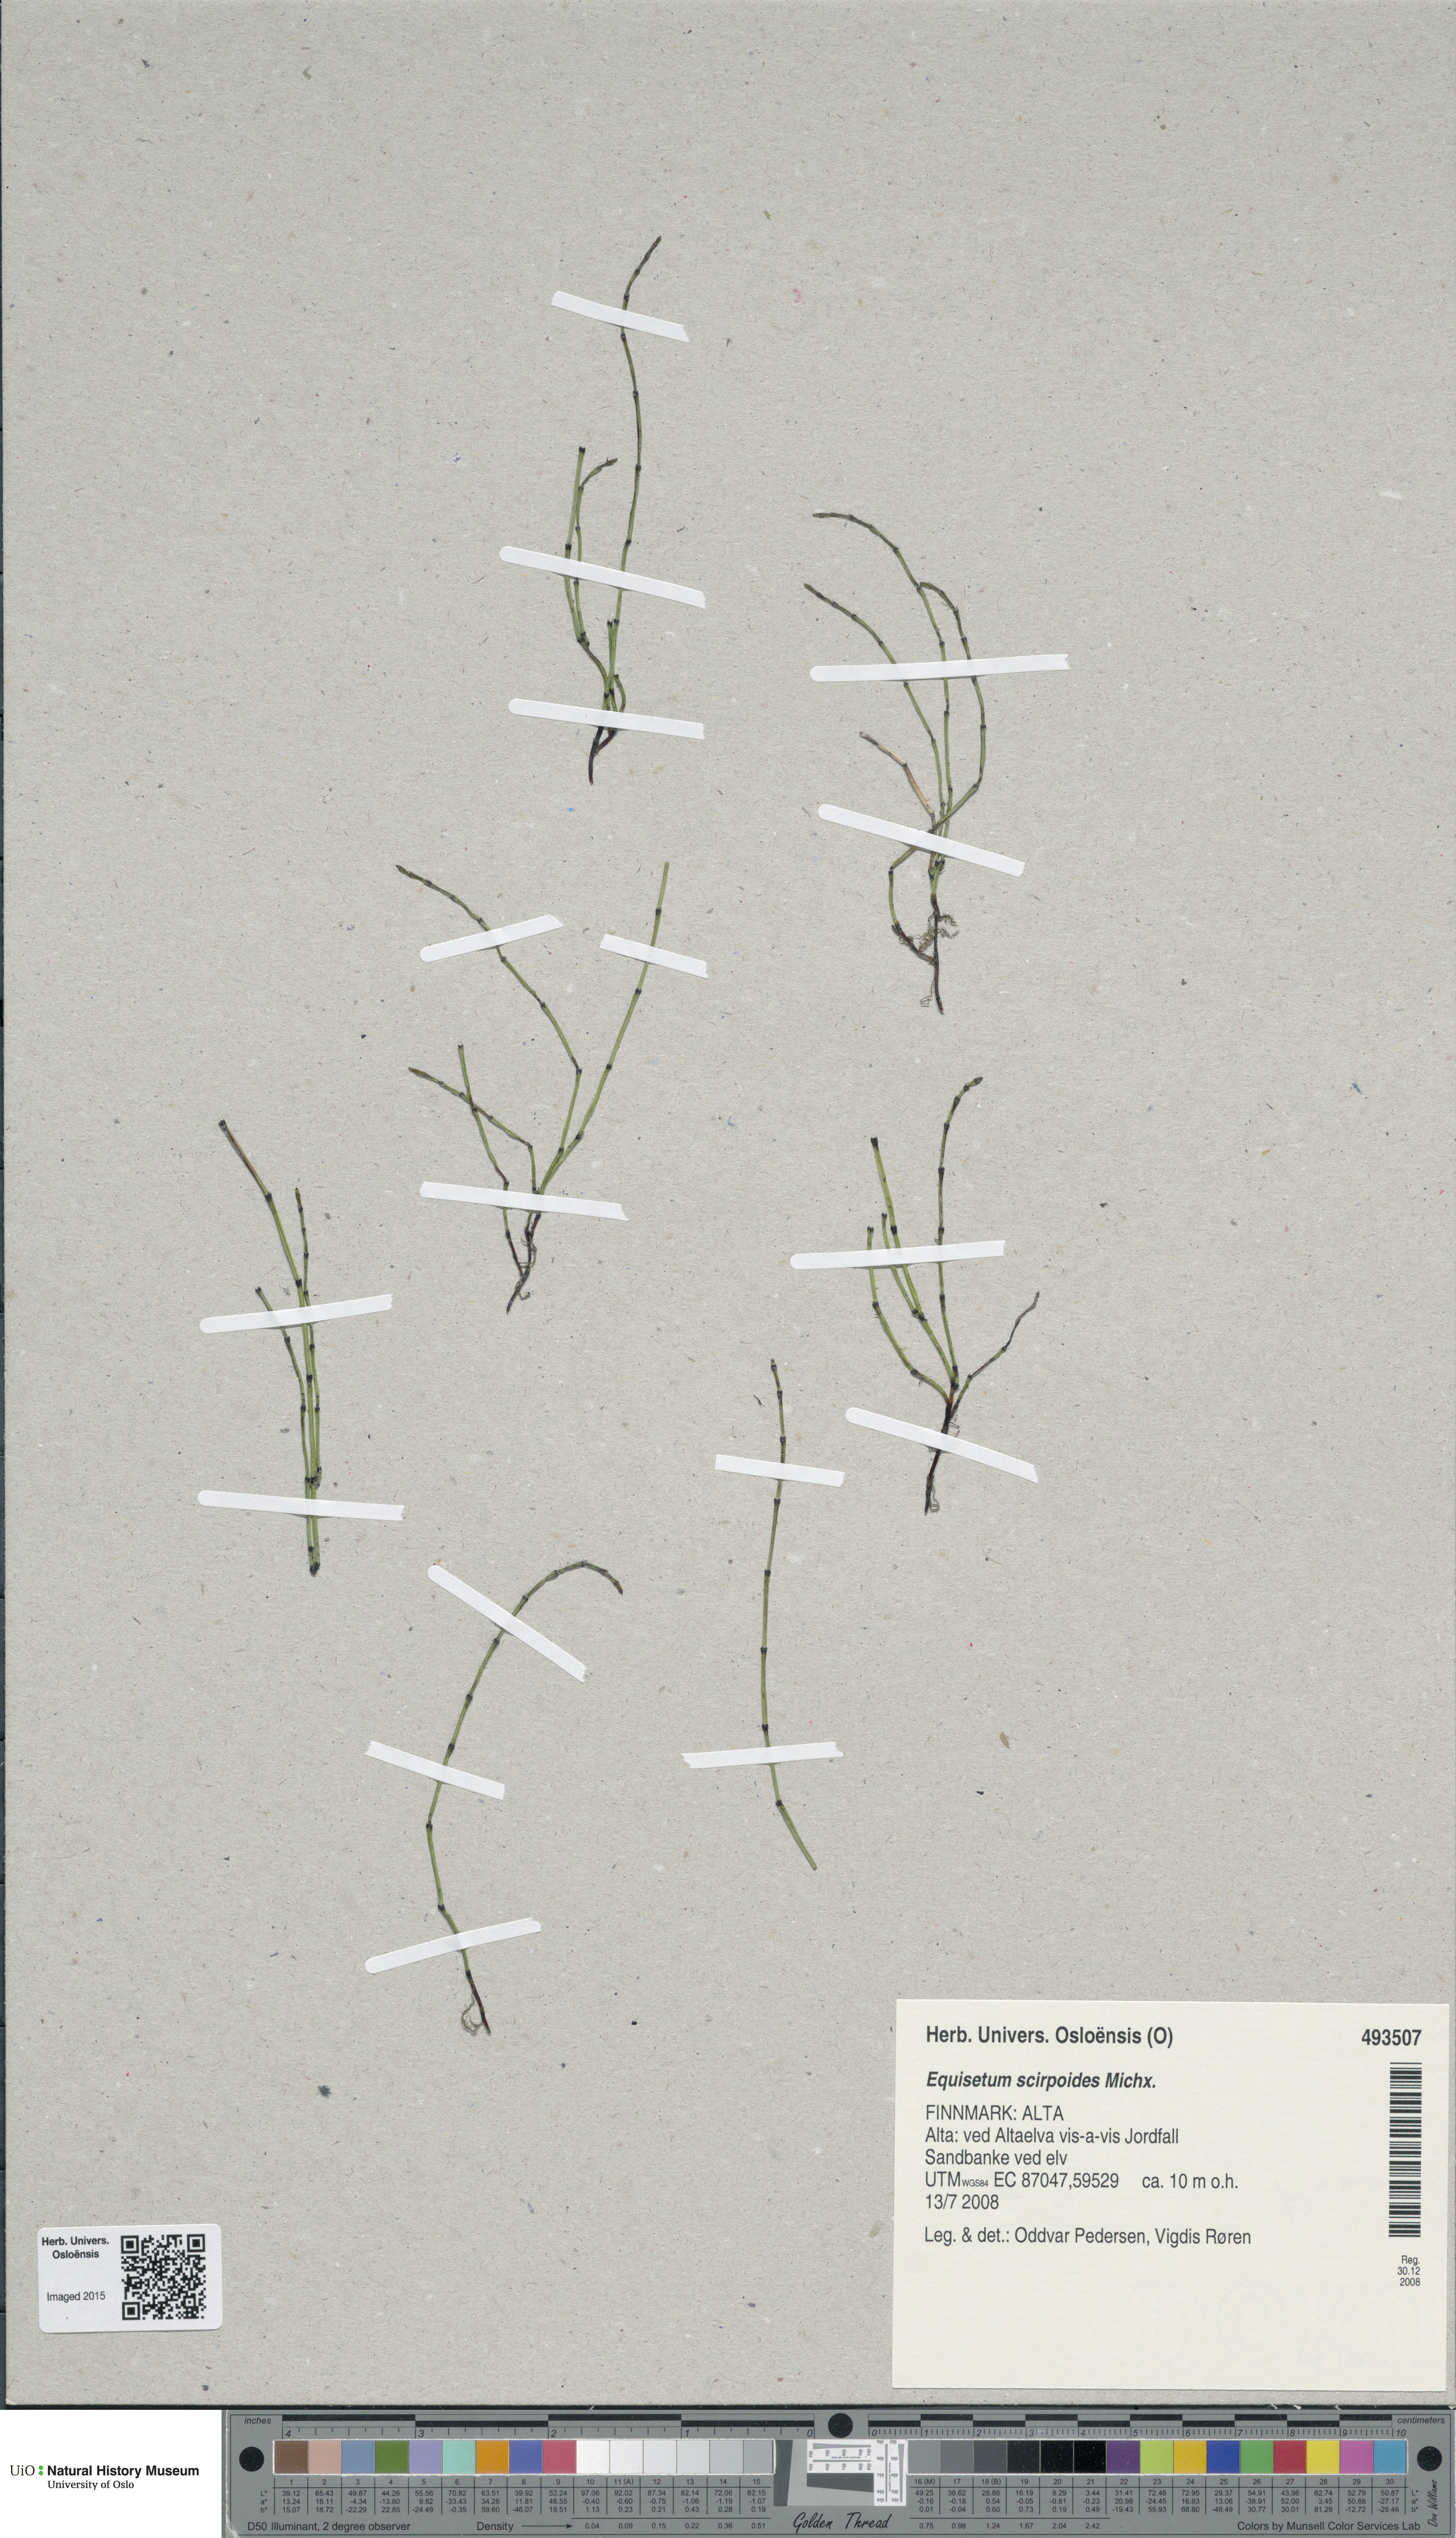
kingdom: Plantae
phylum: Tracheophyta
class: Polypodiopsida
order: Equisetales
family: Equisetaceae
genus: Equisetum
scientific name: Equisetum scirpoides
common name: Delicate horsetail
